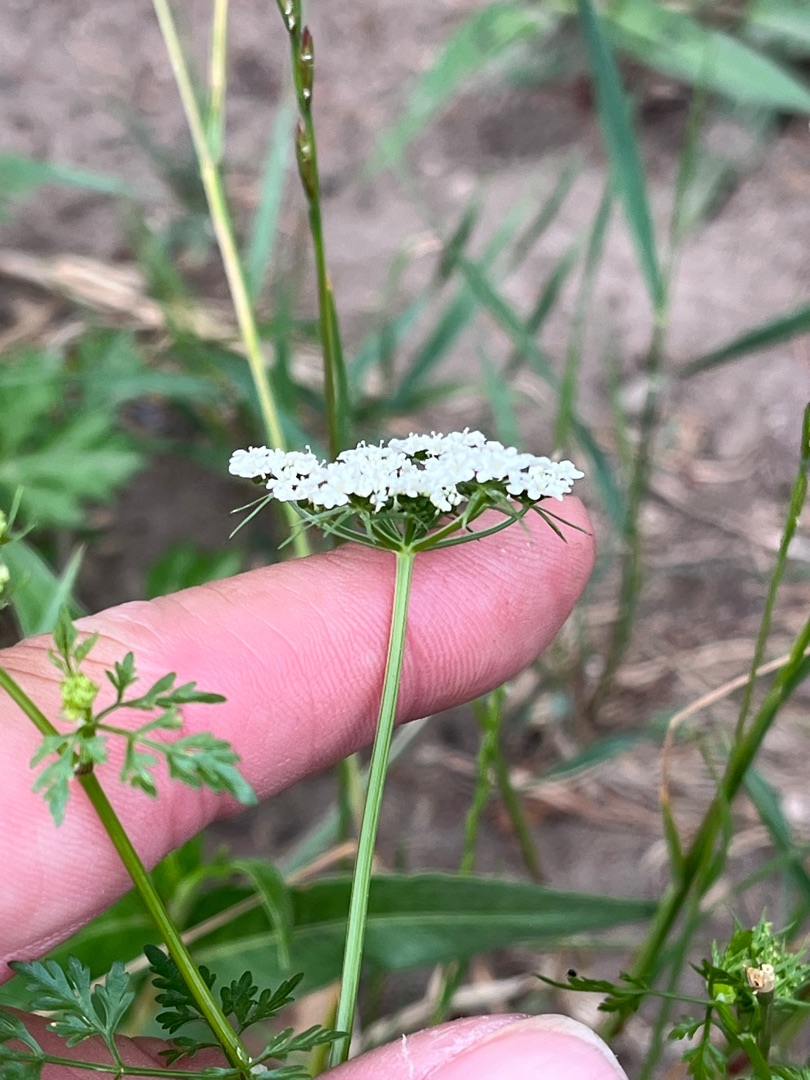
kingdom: Plantae
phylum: Tracheophyta
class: Magnoliopsida
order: Apiales
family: Apiaceae
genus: Aethusa
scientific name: Aethusa cynapium
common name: Hundepersille
